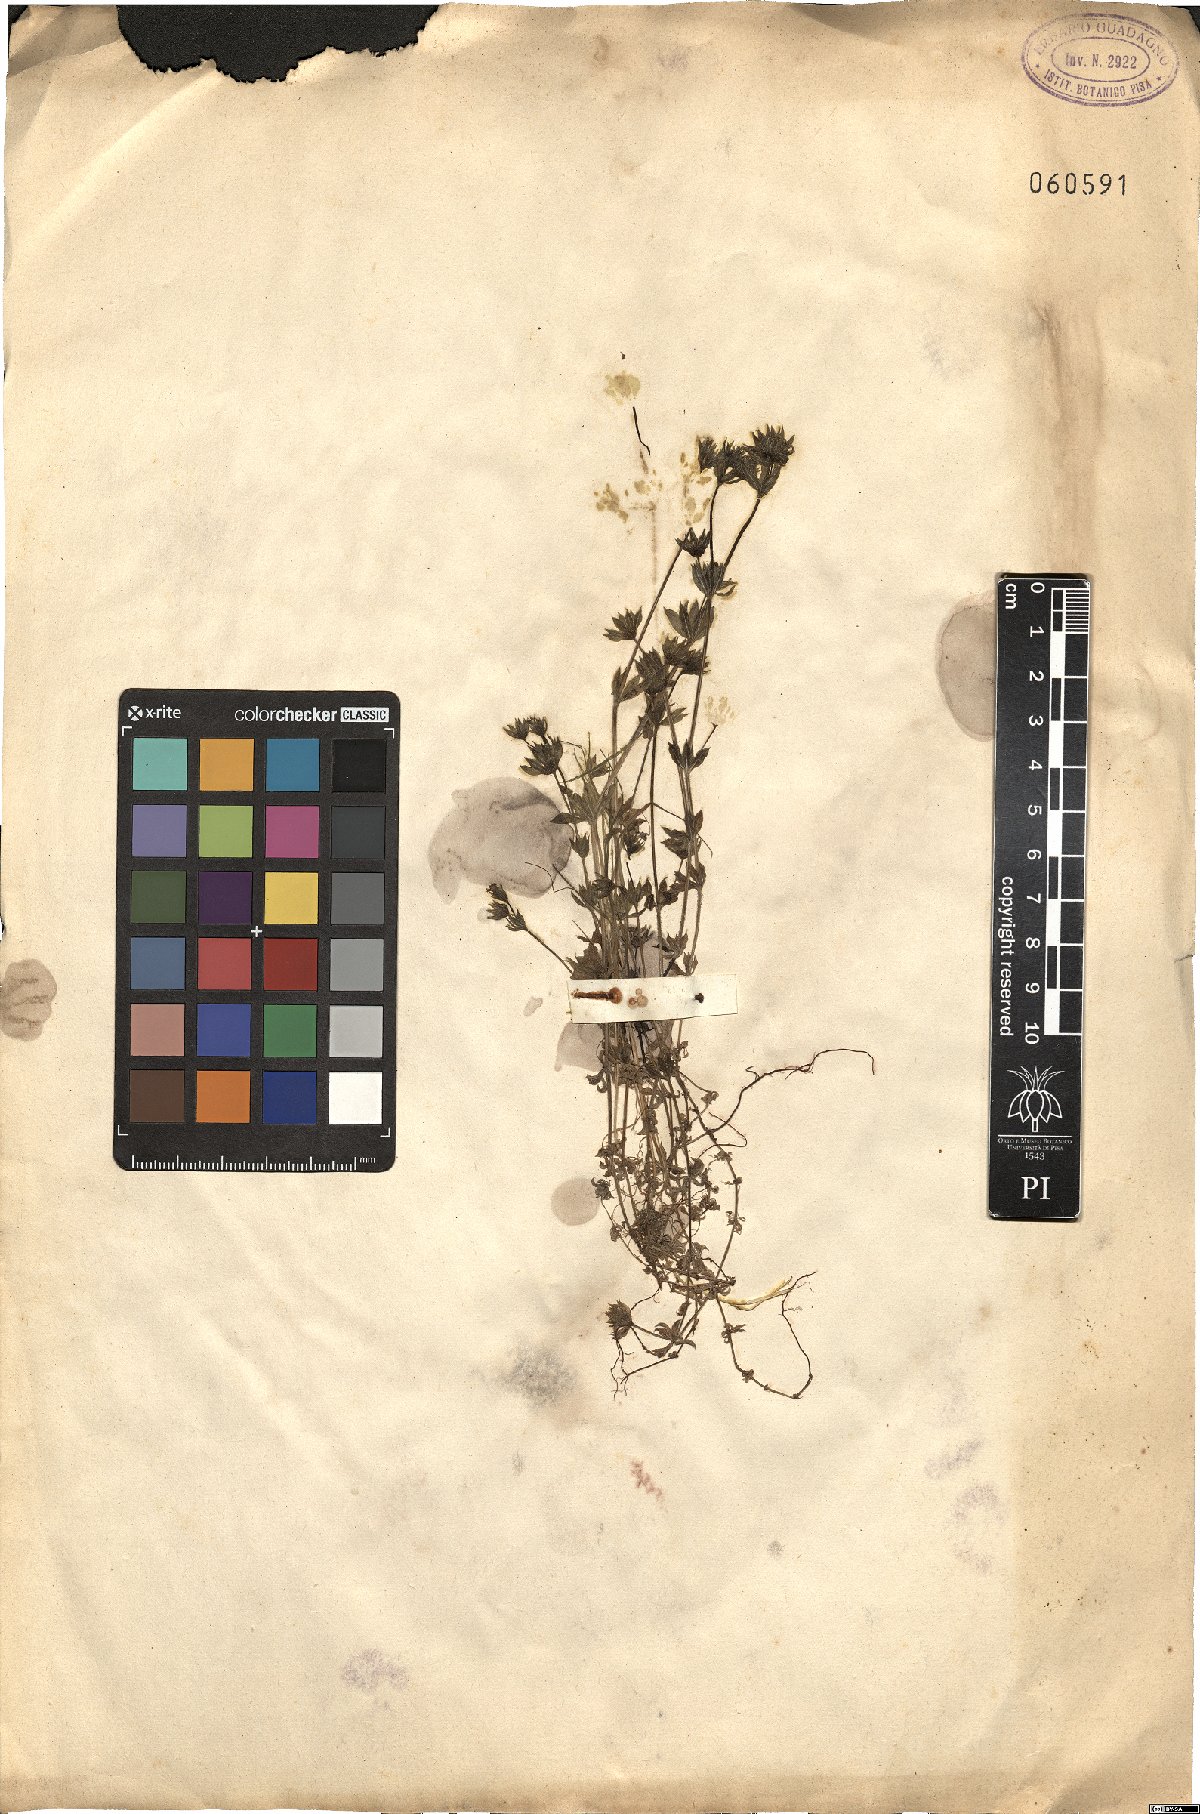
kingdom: Plantae
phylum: Tracheophyta
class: Magnoliopsida
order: Gentianales
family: Rubiaceae
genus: Sherardia
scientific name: Sherardia arvensis
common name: Field madder
